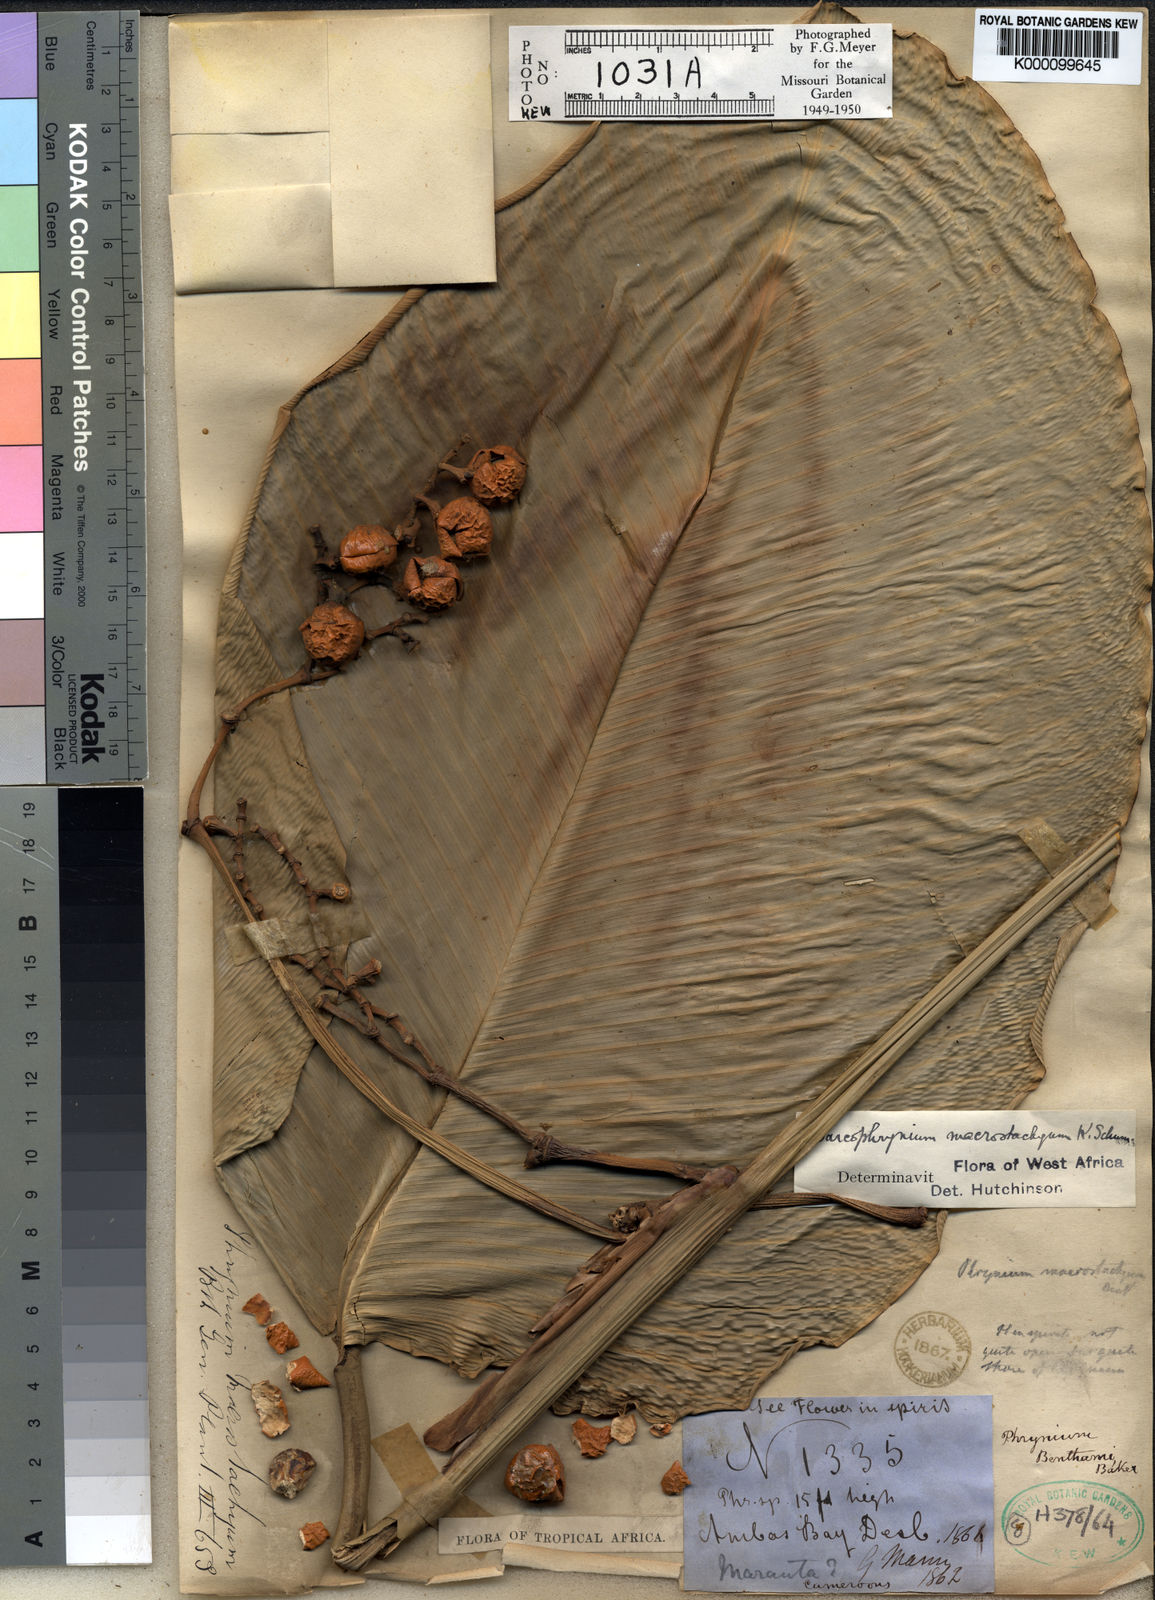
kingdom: Plantae
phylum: Tracheophyta
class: Liliopsida
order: Zingiberales
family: Marantaceae
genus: Megaphrynium
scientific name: Megaphrynium macrostachyum
